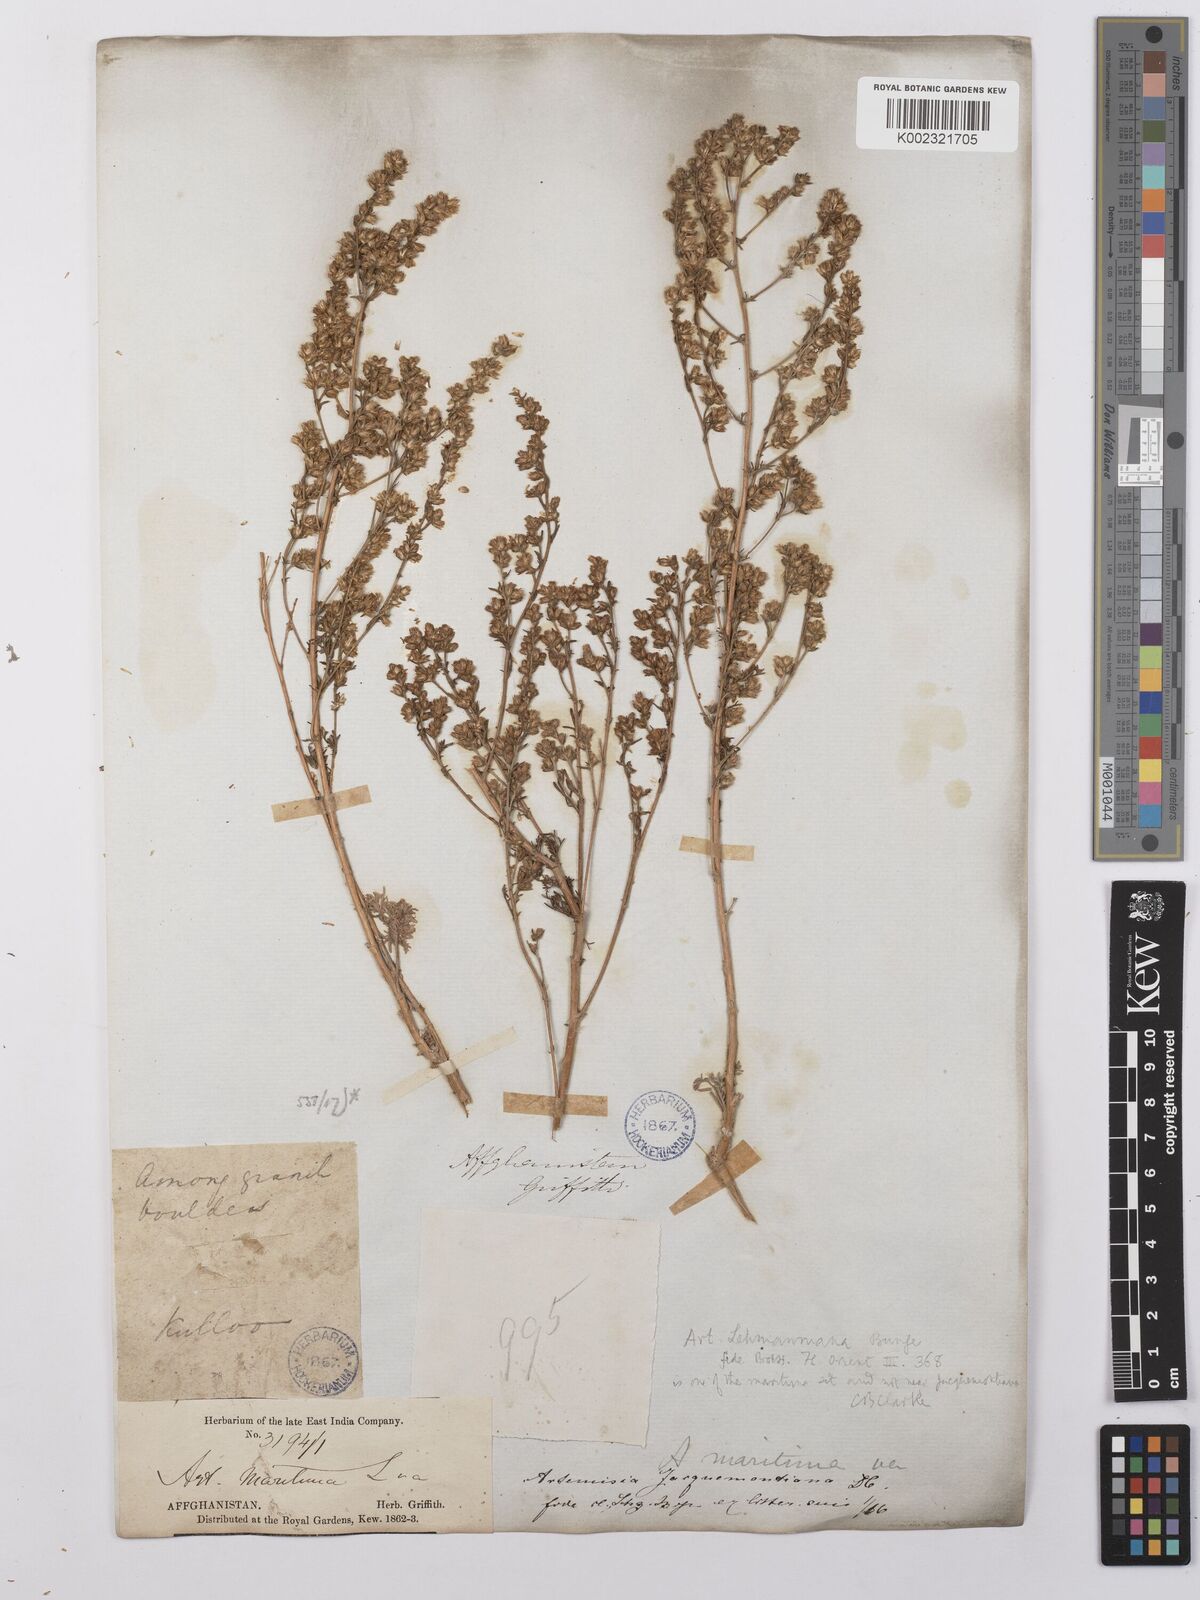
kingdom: Plantae
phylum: Tracheophyta
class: Magnoliopsida
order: Asterales
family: Asteraceae
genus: Artemisia
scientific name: Artemisia lehmanniana
